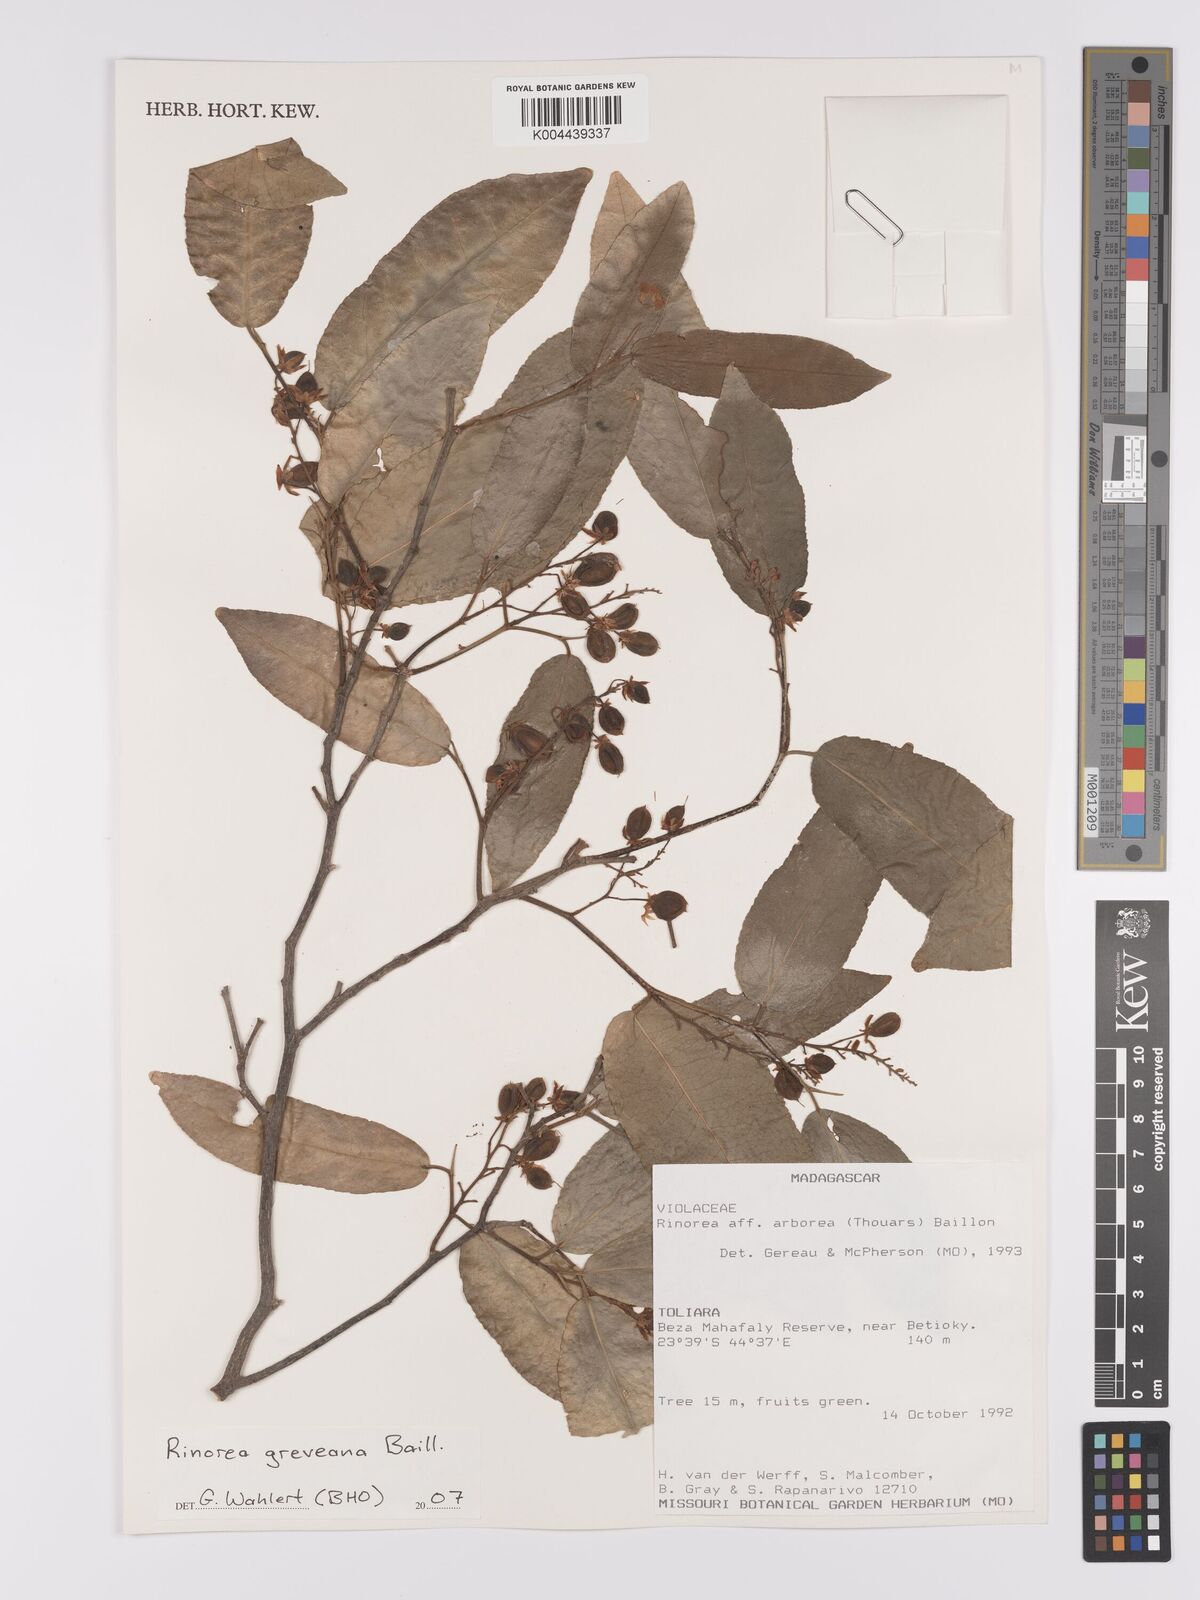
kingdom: Plantae
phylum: Tracheophyta
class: Magnoliopsida
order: Malpighiales
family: Violaceae
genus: Rinorea
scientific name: Rinorea greveana
